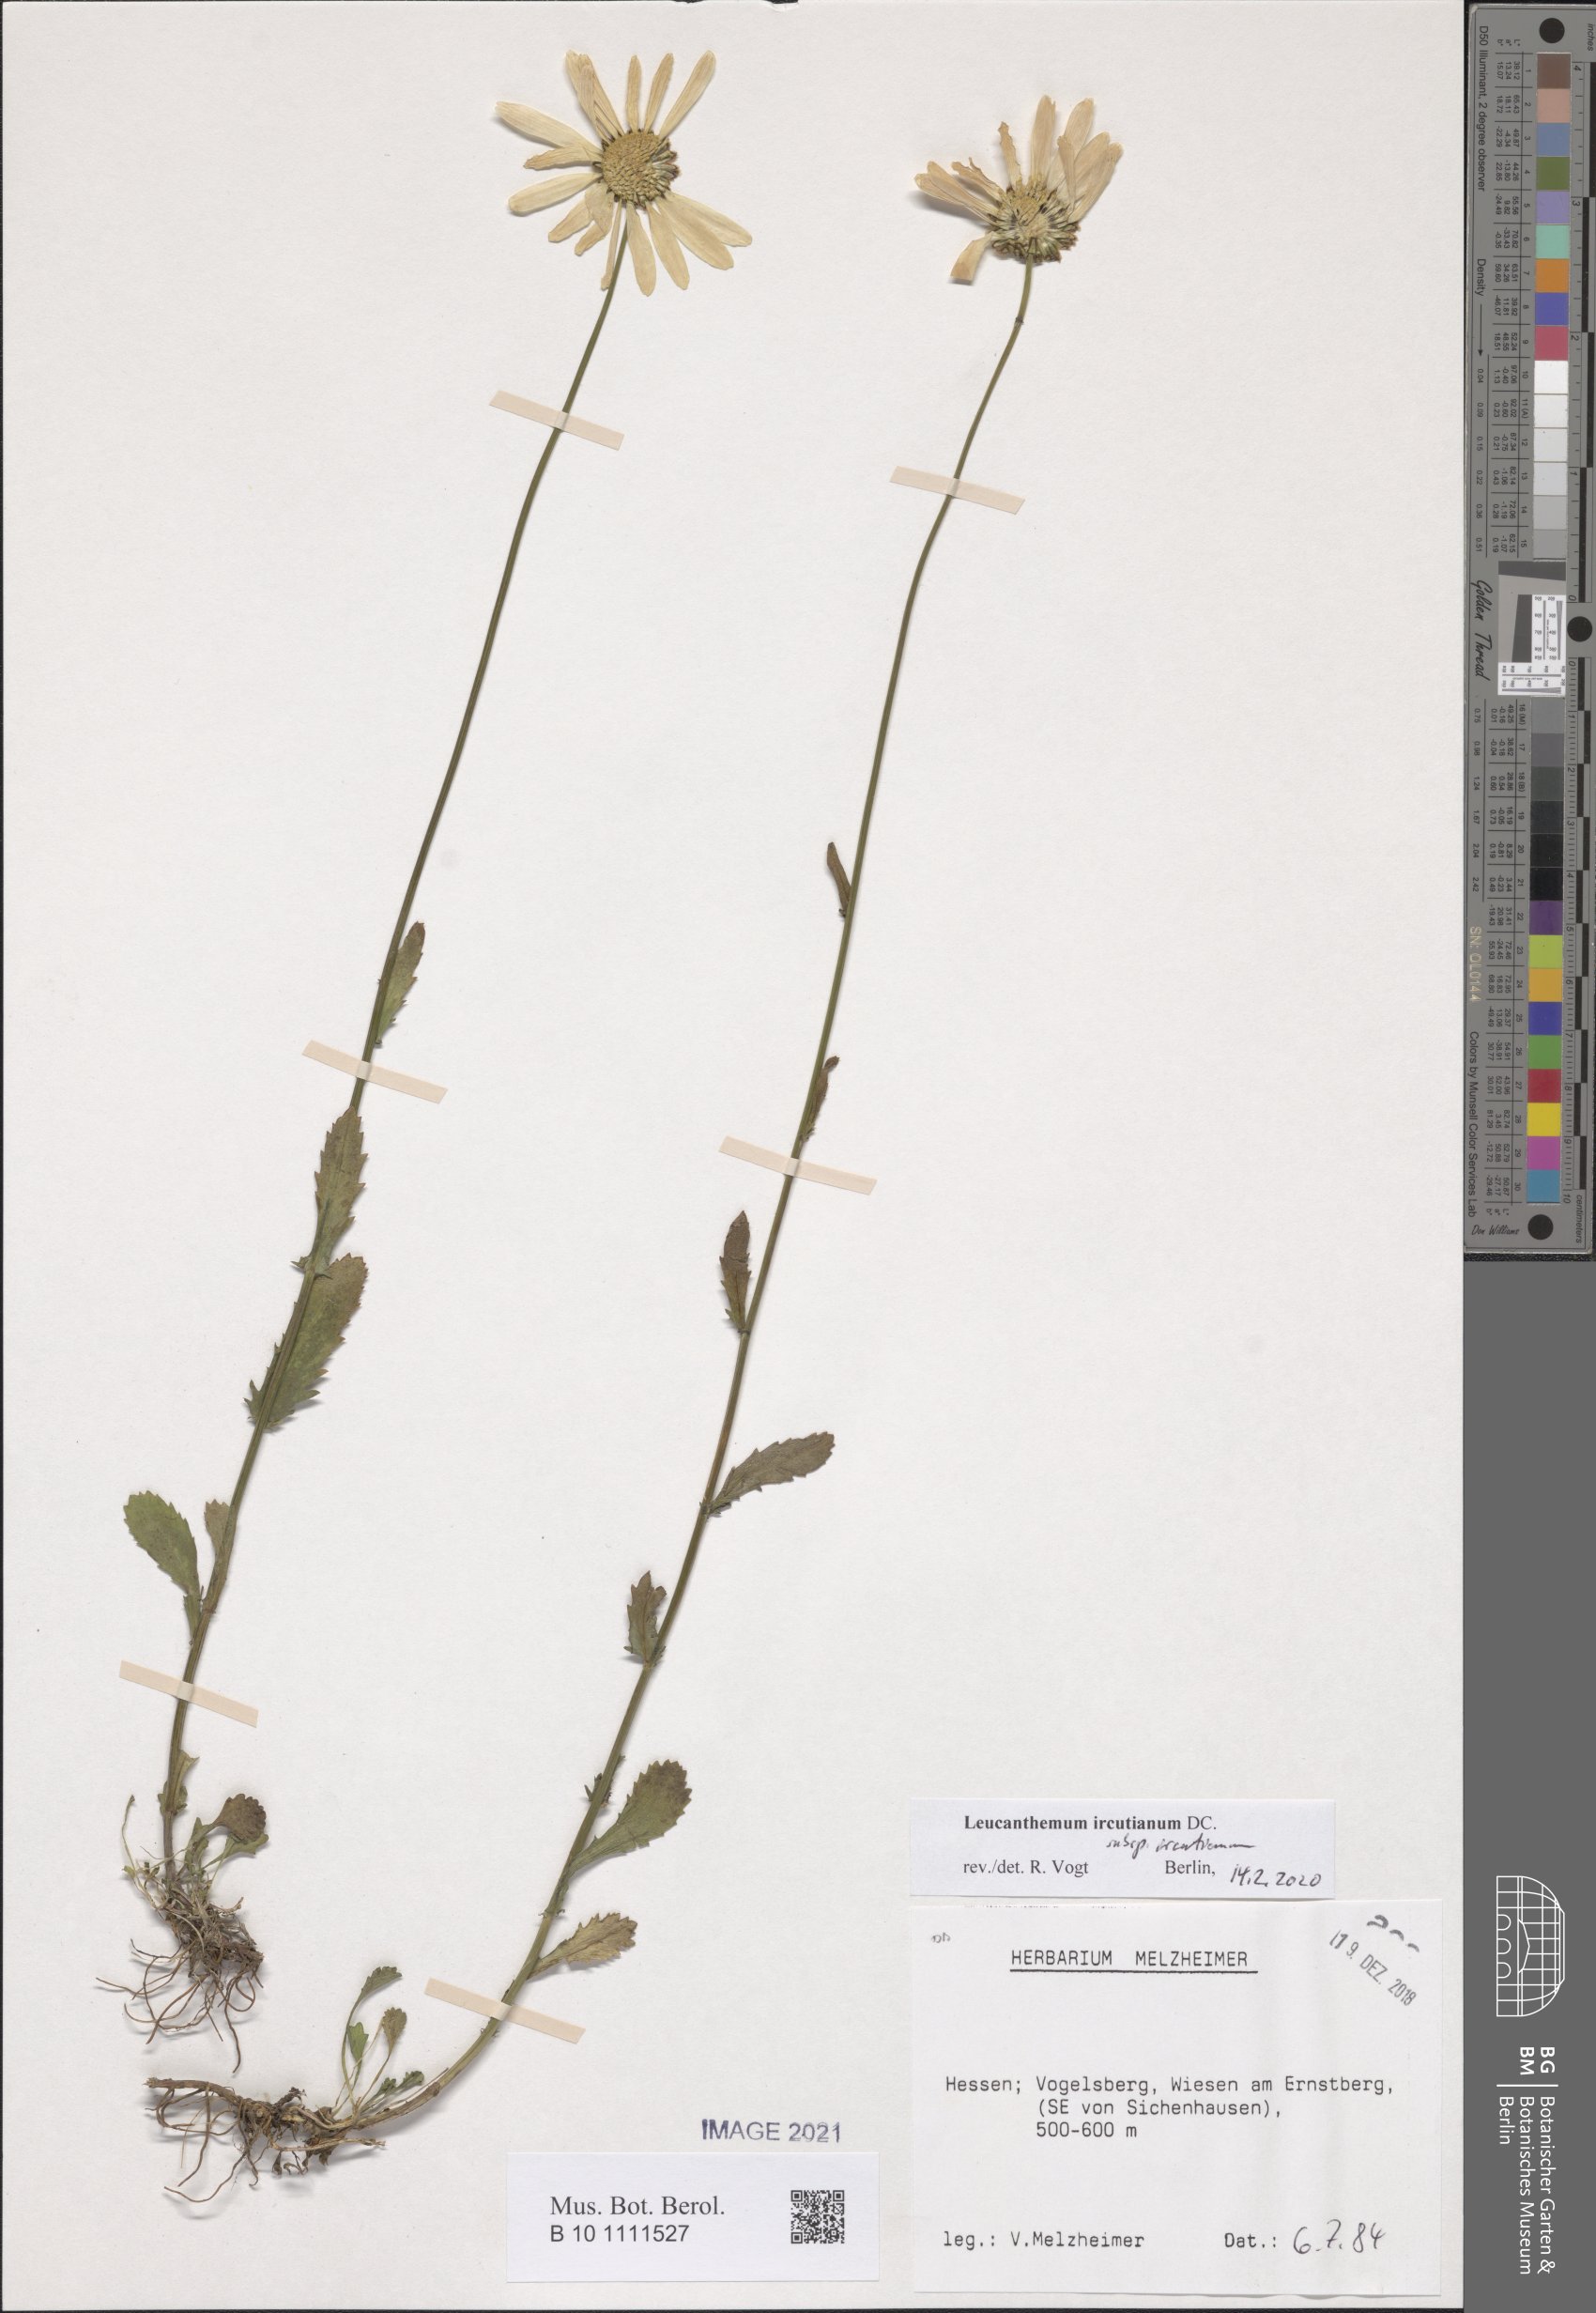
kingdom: Plantae
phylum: Tracheophyta
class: Magnoliopsida
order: Asterales
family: Asteraceae
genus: Leucanthemum
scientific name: Leucanthemum ircutianum
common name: Daisy
